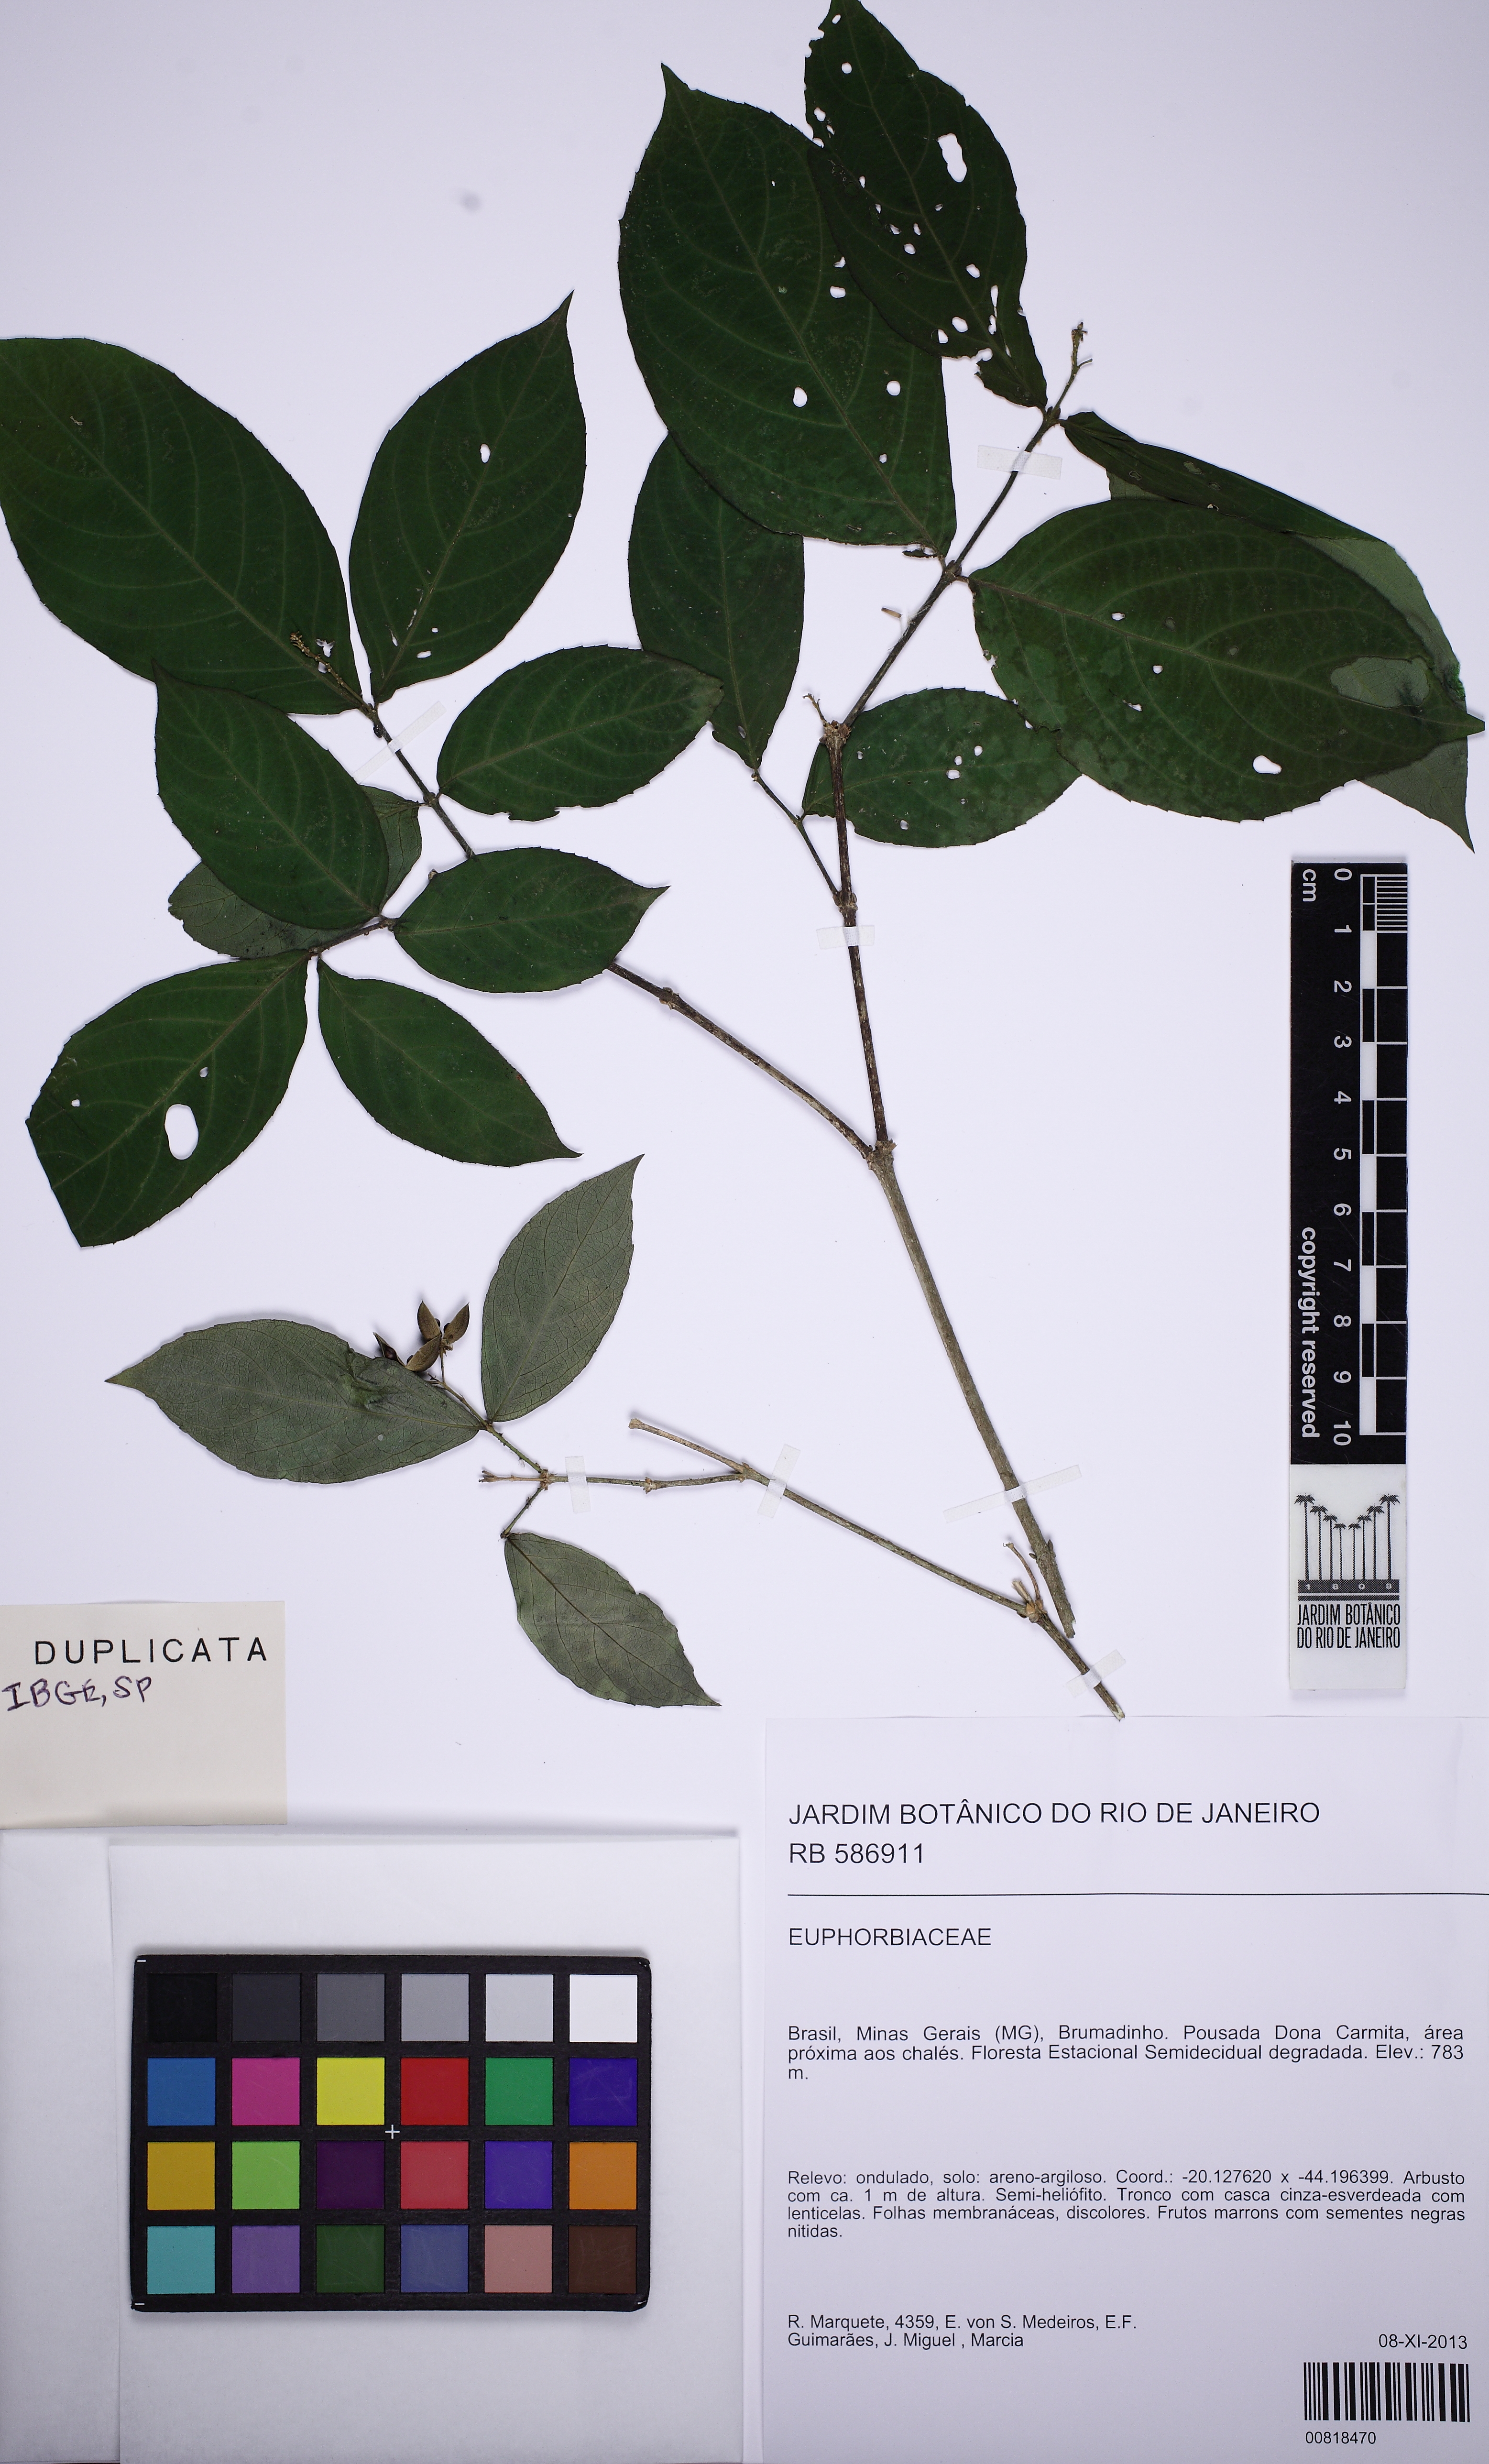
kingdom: Plantae
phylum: Tracheophyta
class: Magnoliopsida
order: Malpighiales
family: Violaceae
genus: Pombalia
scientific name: Pombalia atropurpurea
